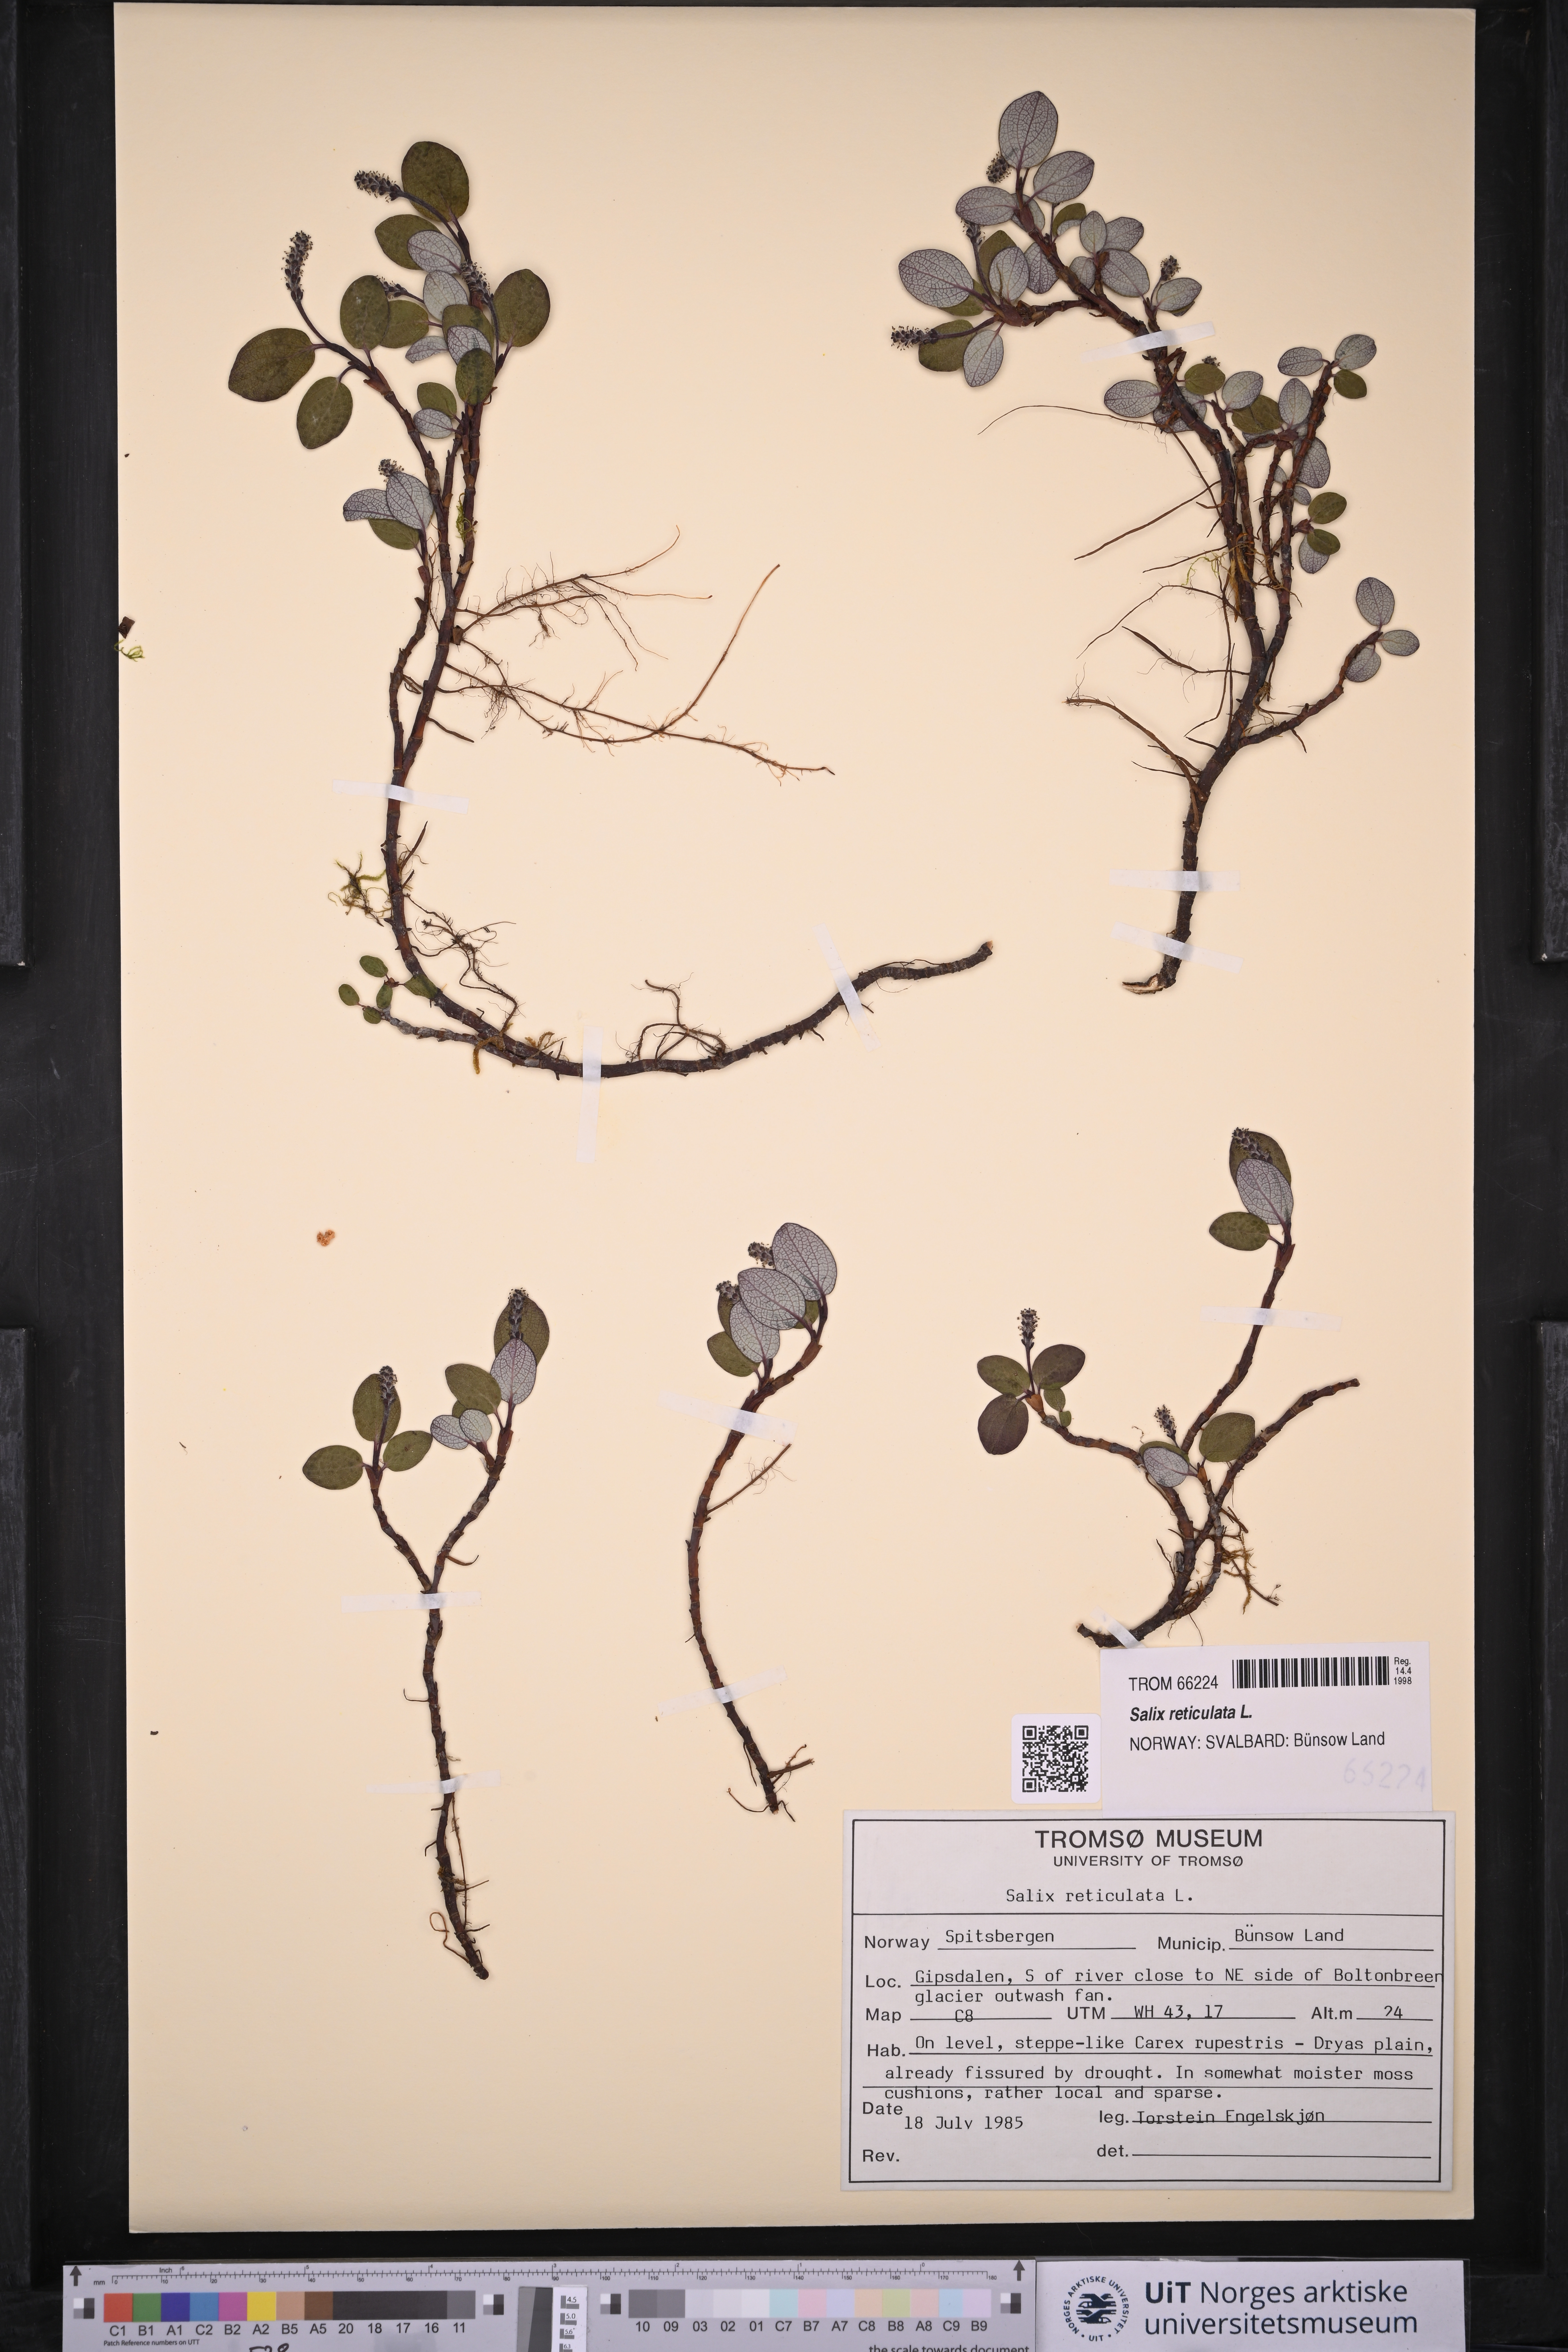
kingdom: Plantae
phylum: Tracheophyta
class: Magnoliopsida
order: Malpighiales
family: Salicaceae
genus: Salix
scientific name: Salix reticulata
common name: Net-leaved willow
